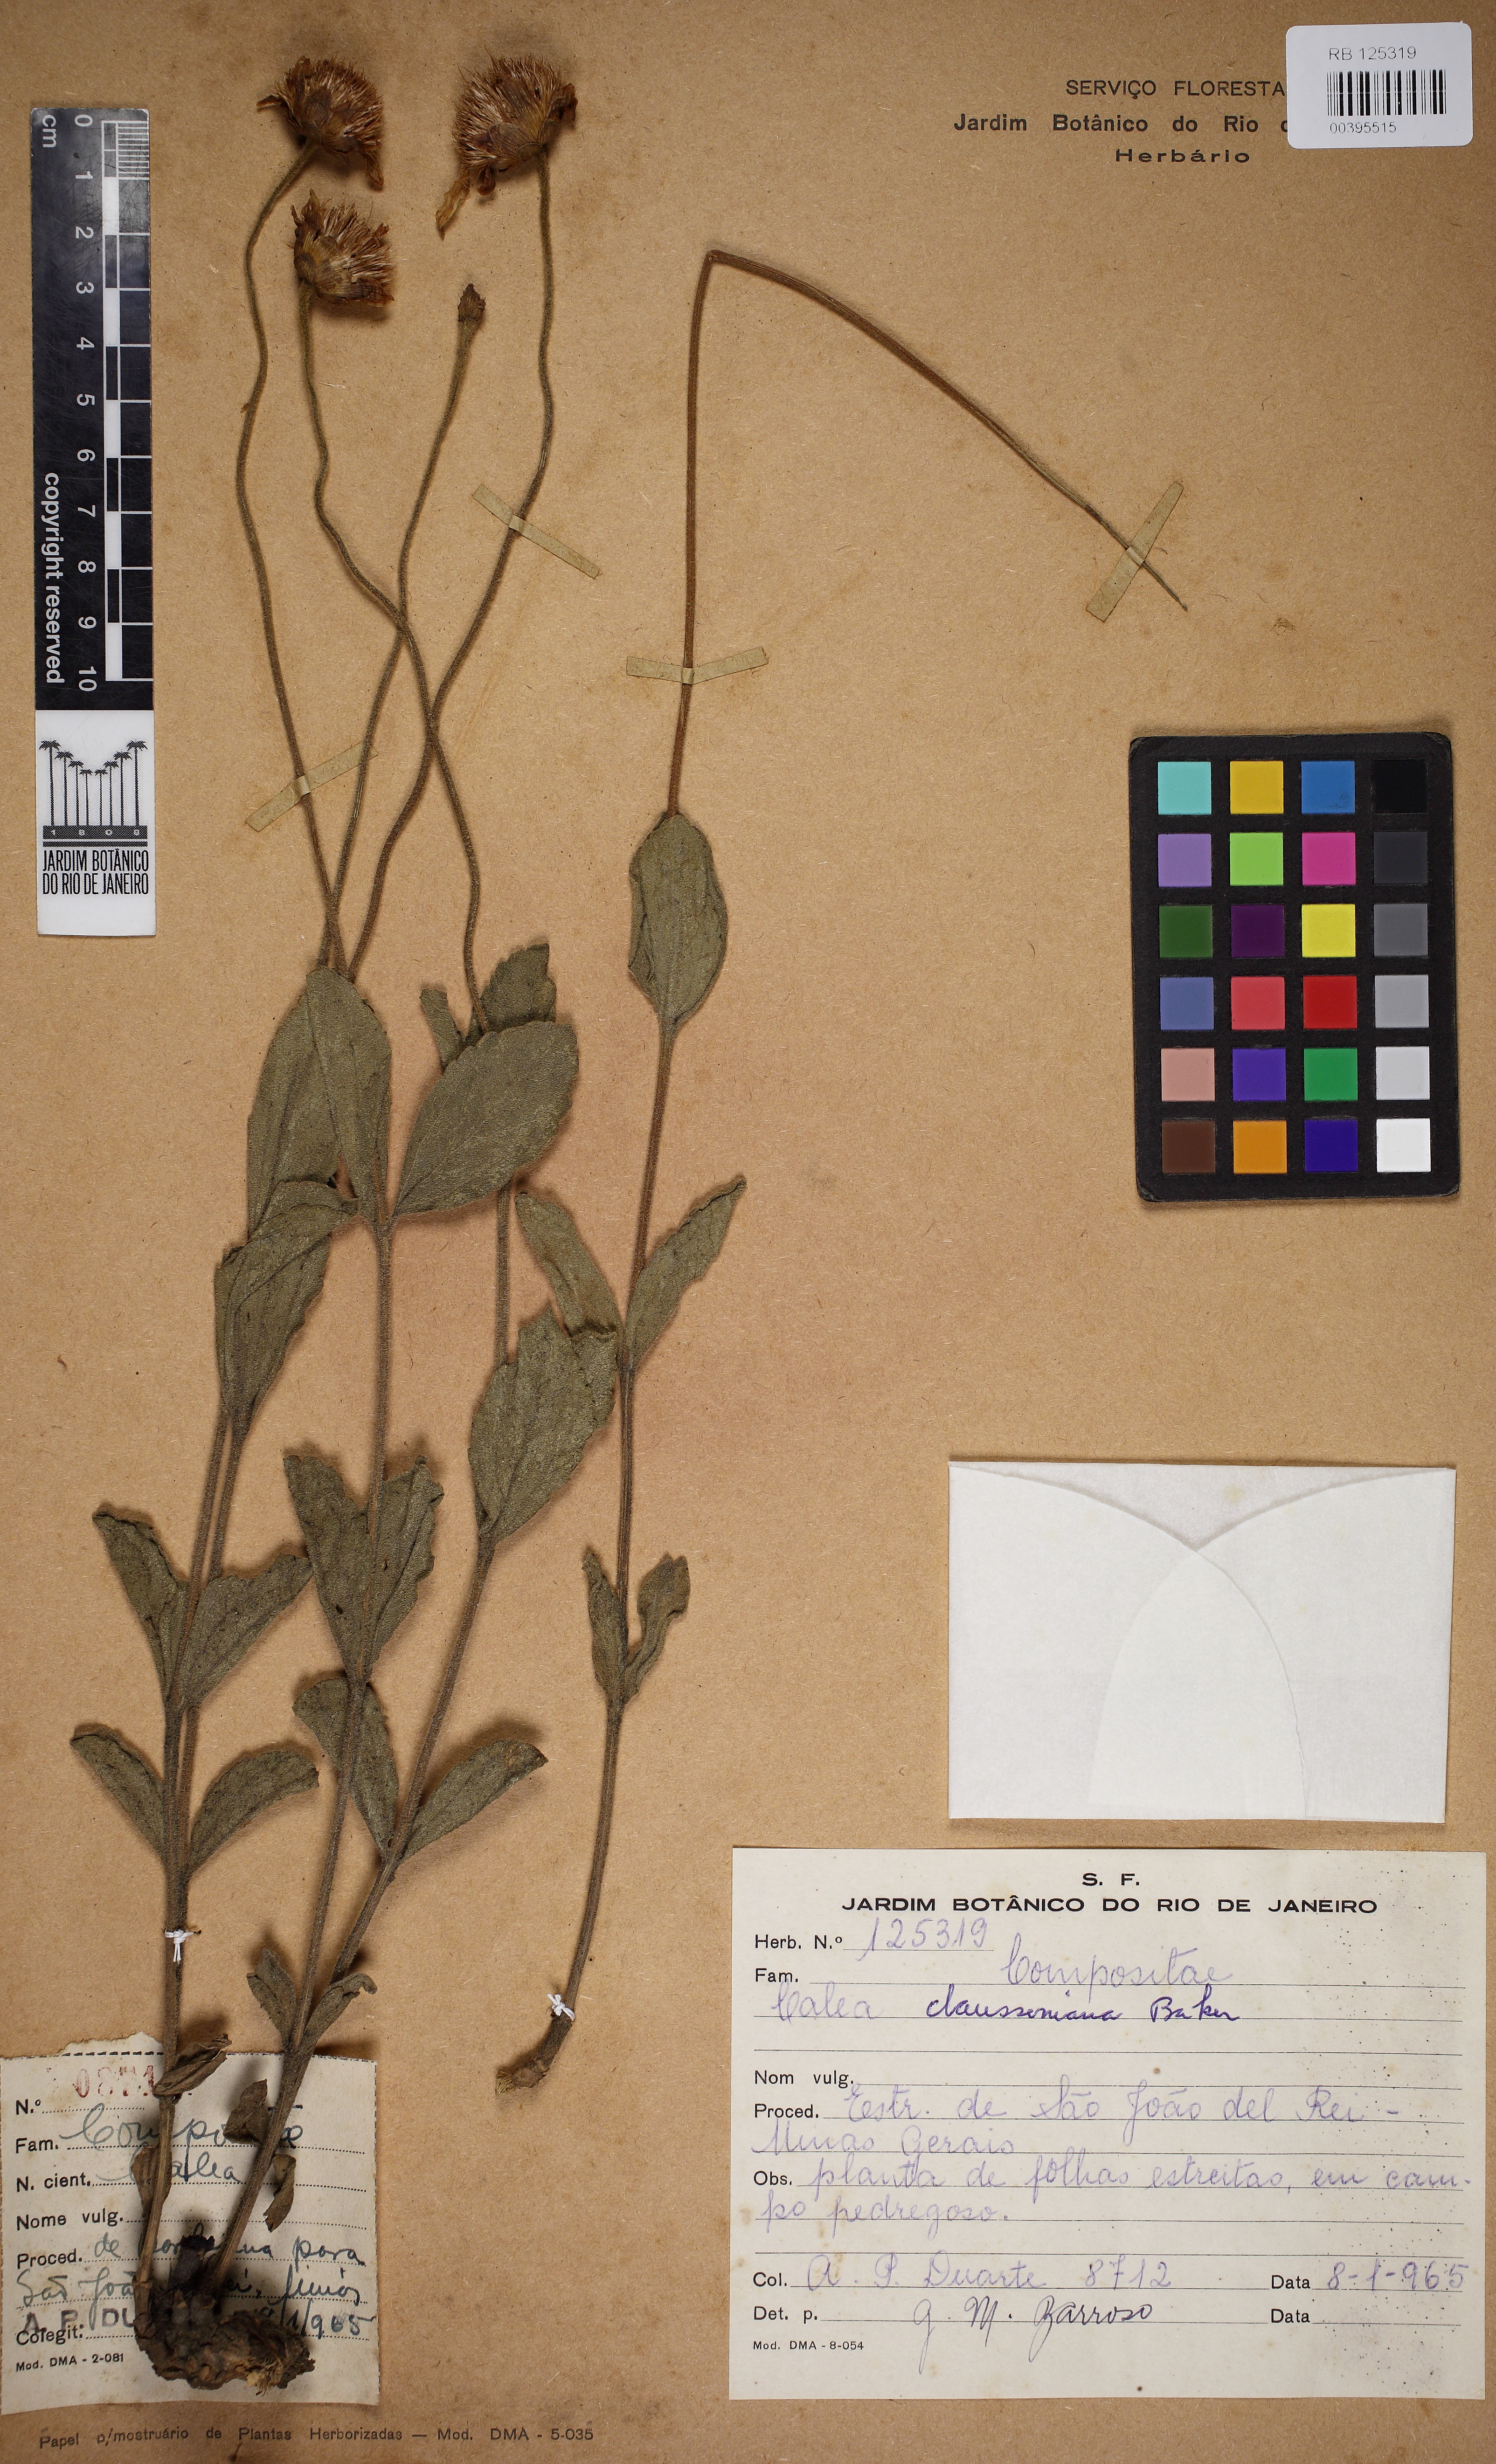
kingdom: Plantae
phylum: Tracheophyta
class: Magnoliopsida
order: Asterales
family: Asteraceae
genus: Calea
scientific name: Calea clausseniana
